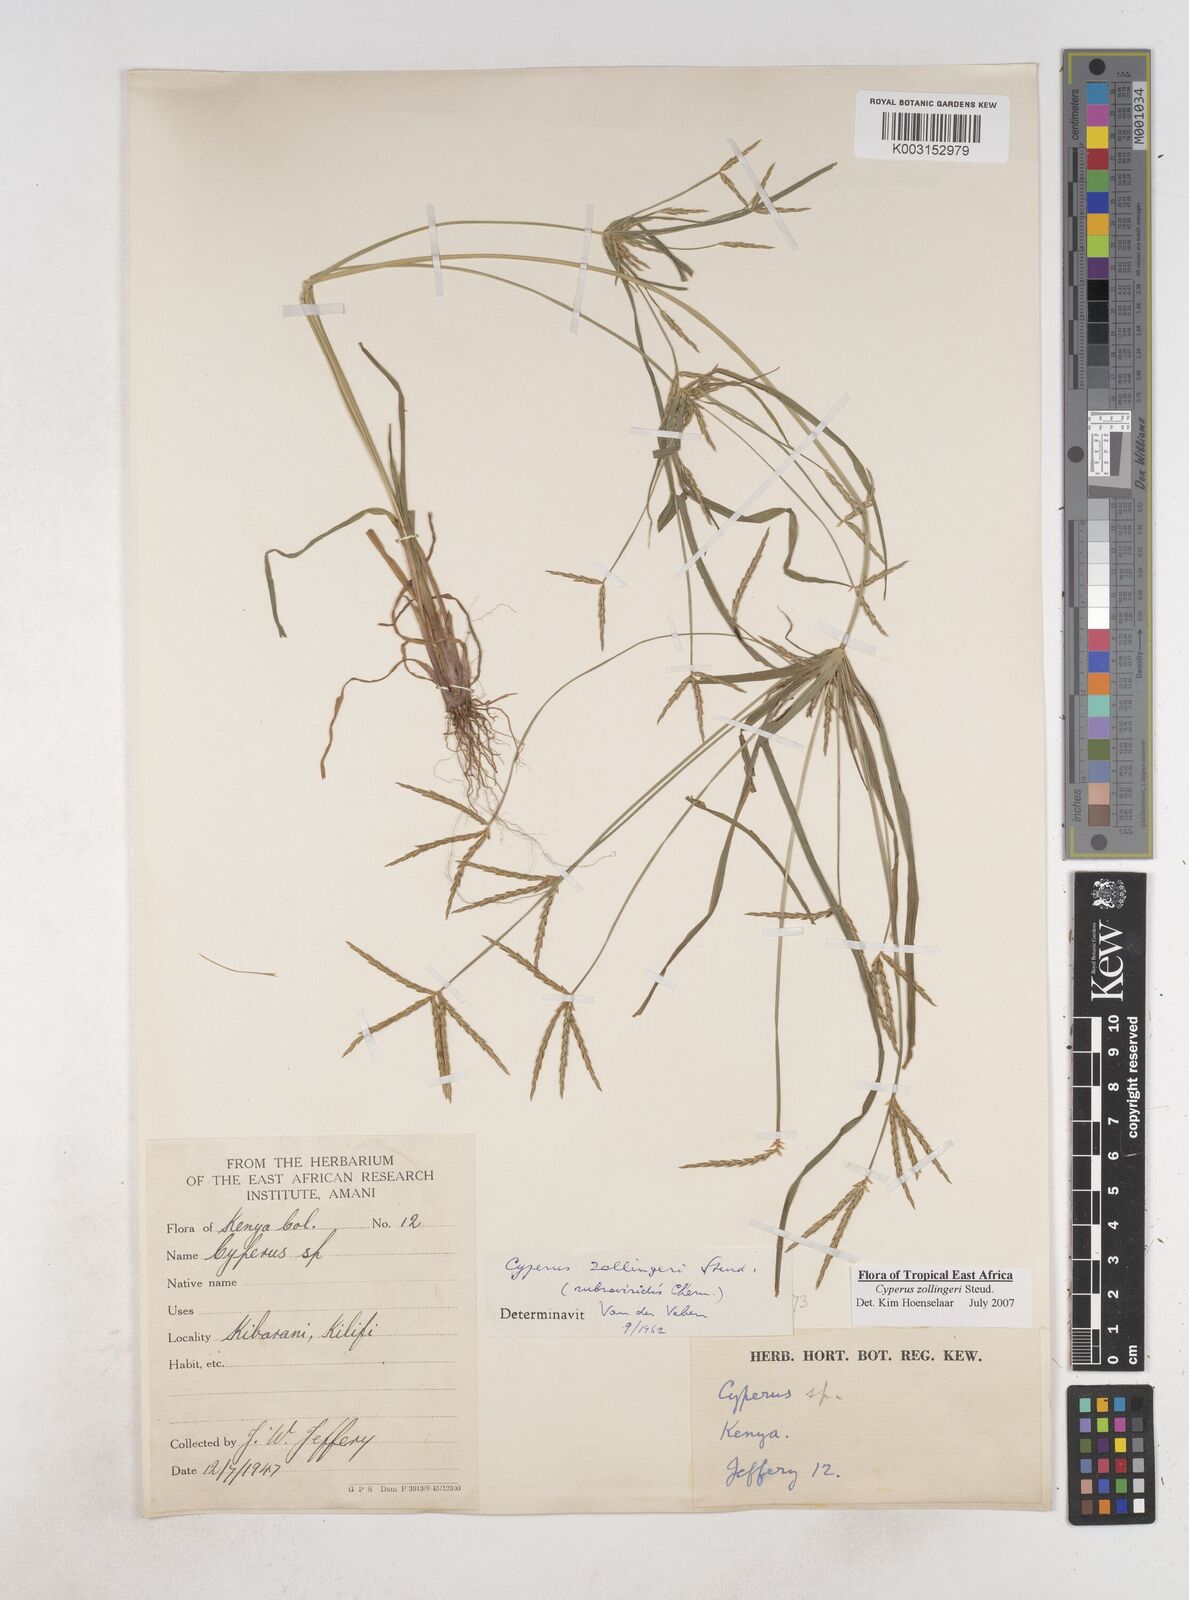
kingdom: Plantae
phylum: Tracheophyta
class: Liliopsida
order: Poales
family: Cyperaceae
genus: Cyperus
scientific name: Cyperus zollingerioides
